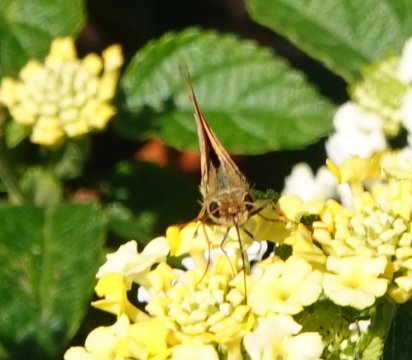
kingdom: Animalia
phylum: Arthropoda
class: Insecta
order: Lepidoptera
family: Hesperiidae
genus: Hylephila
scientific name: Hylephila phyleus
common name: Fiery Skipper
